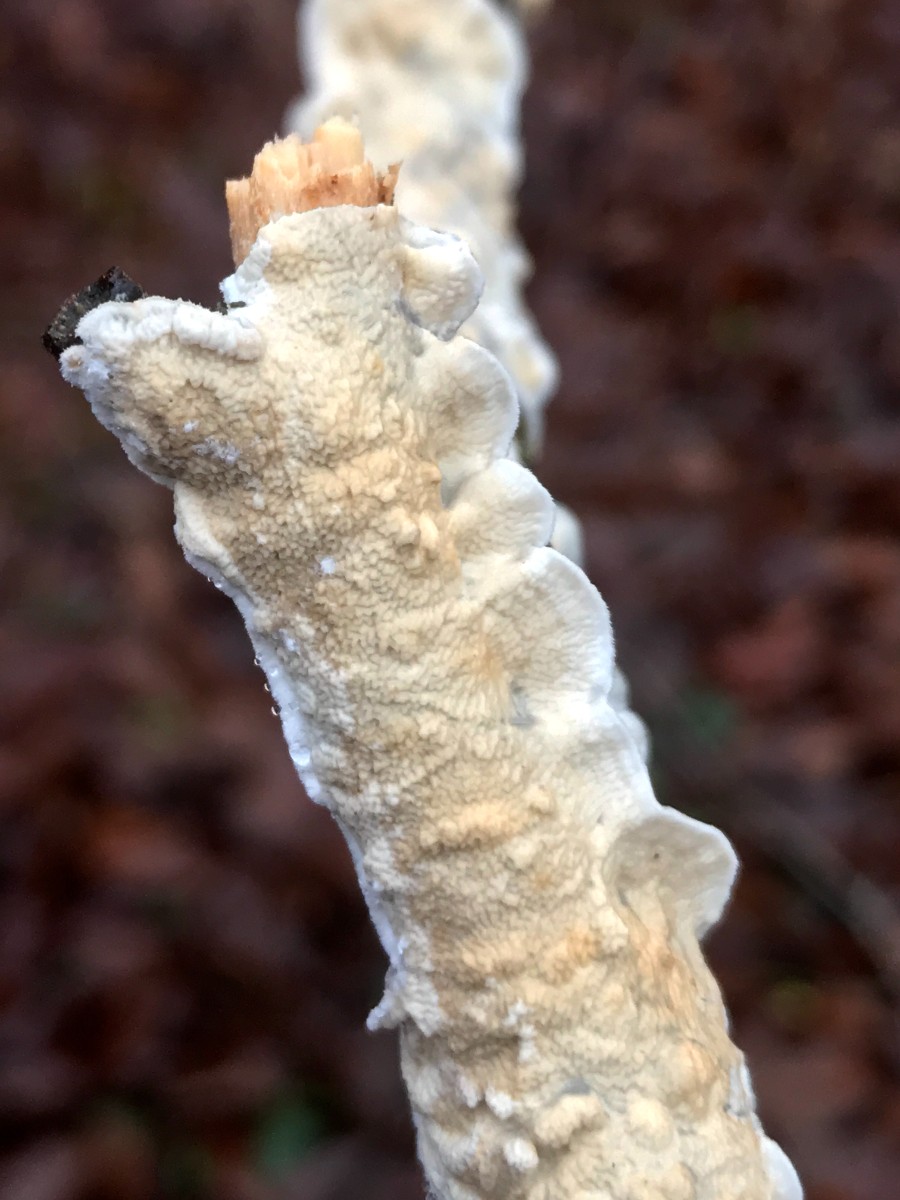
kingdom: Fungi
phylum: Basidiomycota
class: Agaricomycetes
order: Polyporales
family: Irpicaceae
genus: Byssomerulius
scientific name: Byssomerulius corium
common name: læder-åresvamp
